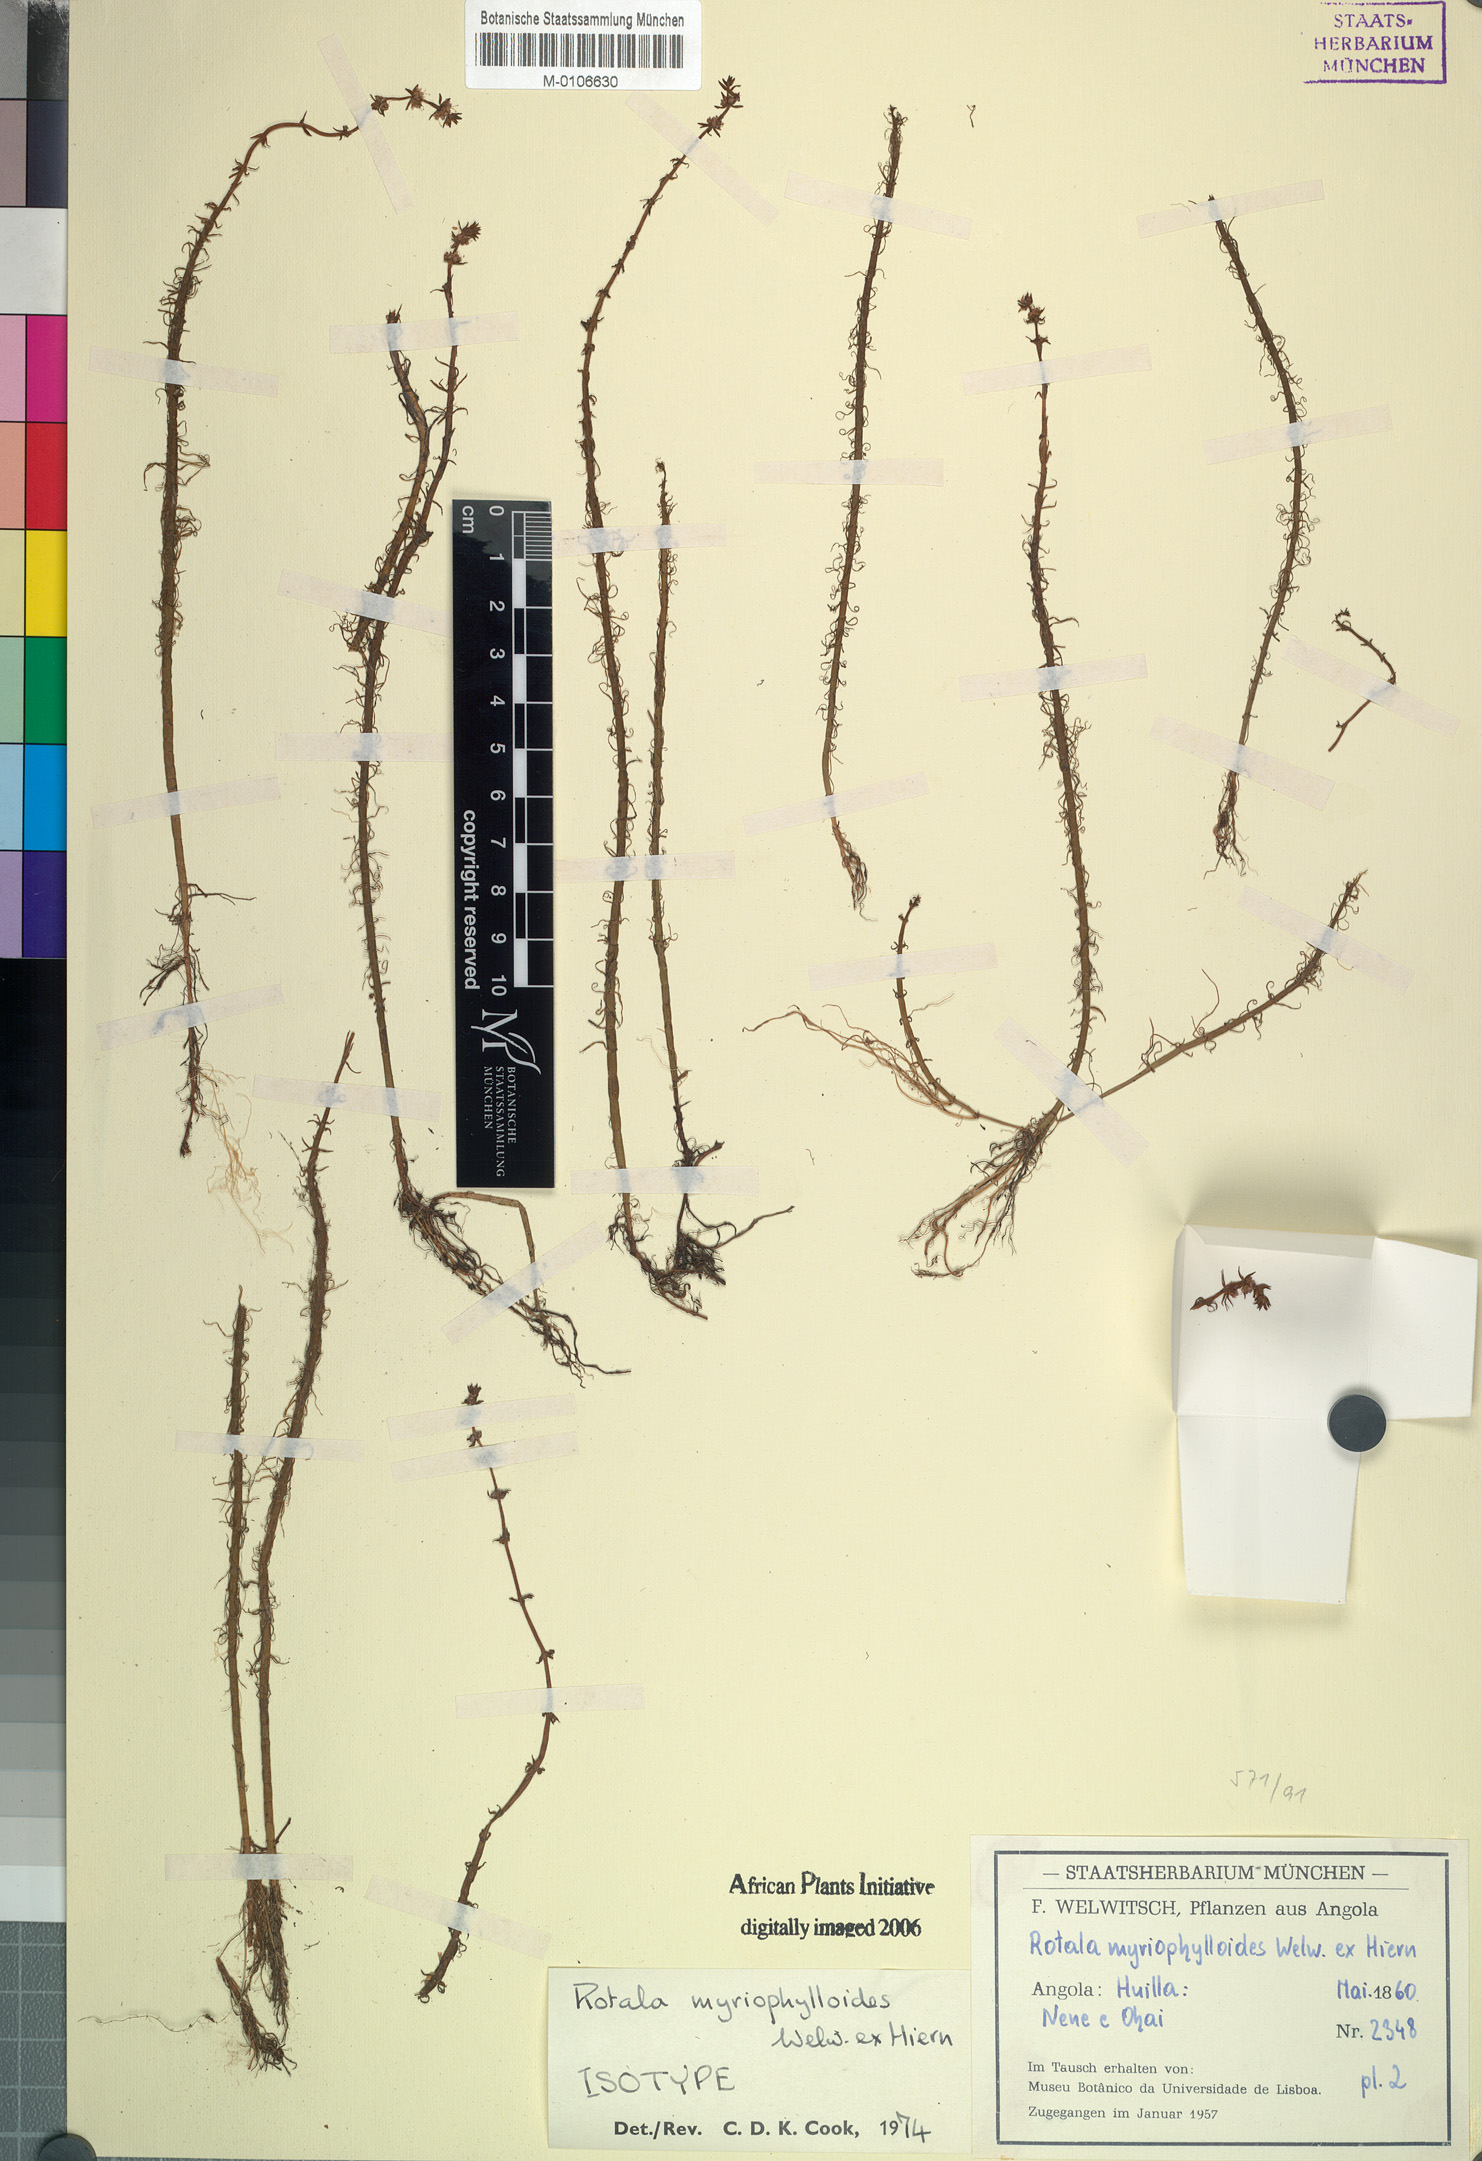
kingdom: Plantae
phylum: Tracheophyta
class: Magnoliopsida
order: Myrtales
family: Lythraceae
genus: Rotala
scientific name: Rotala myriophylloides
